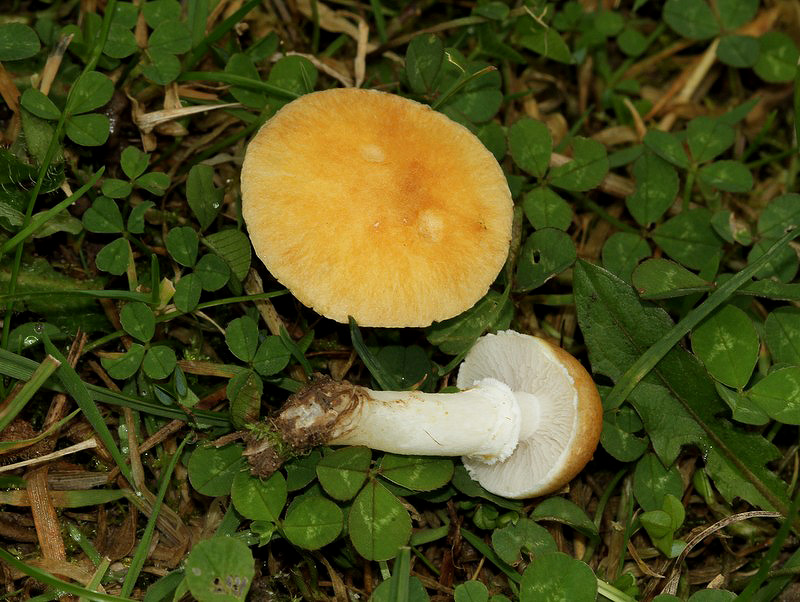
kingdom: Fungi
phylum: Basidiomycota
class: Agaricomycetes
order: Agaricales
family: Hymenogastraceae
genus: Psilocybe
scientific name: Psilocybe coronilla
